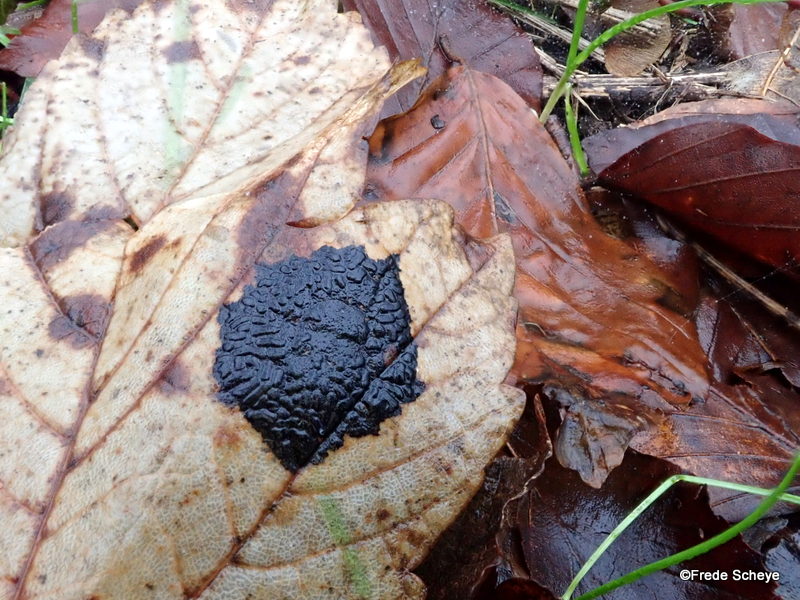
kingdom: Fungi
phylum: Ascomycota
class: Leotiomycetes
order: Rhytismatales
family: Rhytismataceae
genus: Rhytisma
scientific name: Rhytisma acerinum
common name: ahorn-rynkeplet
